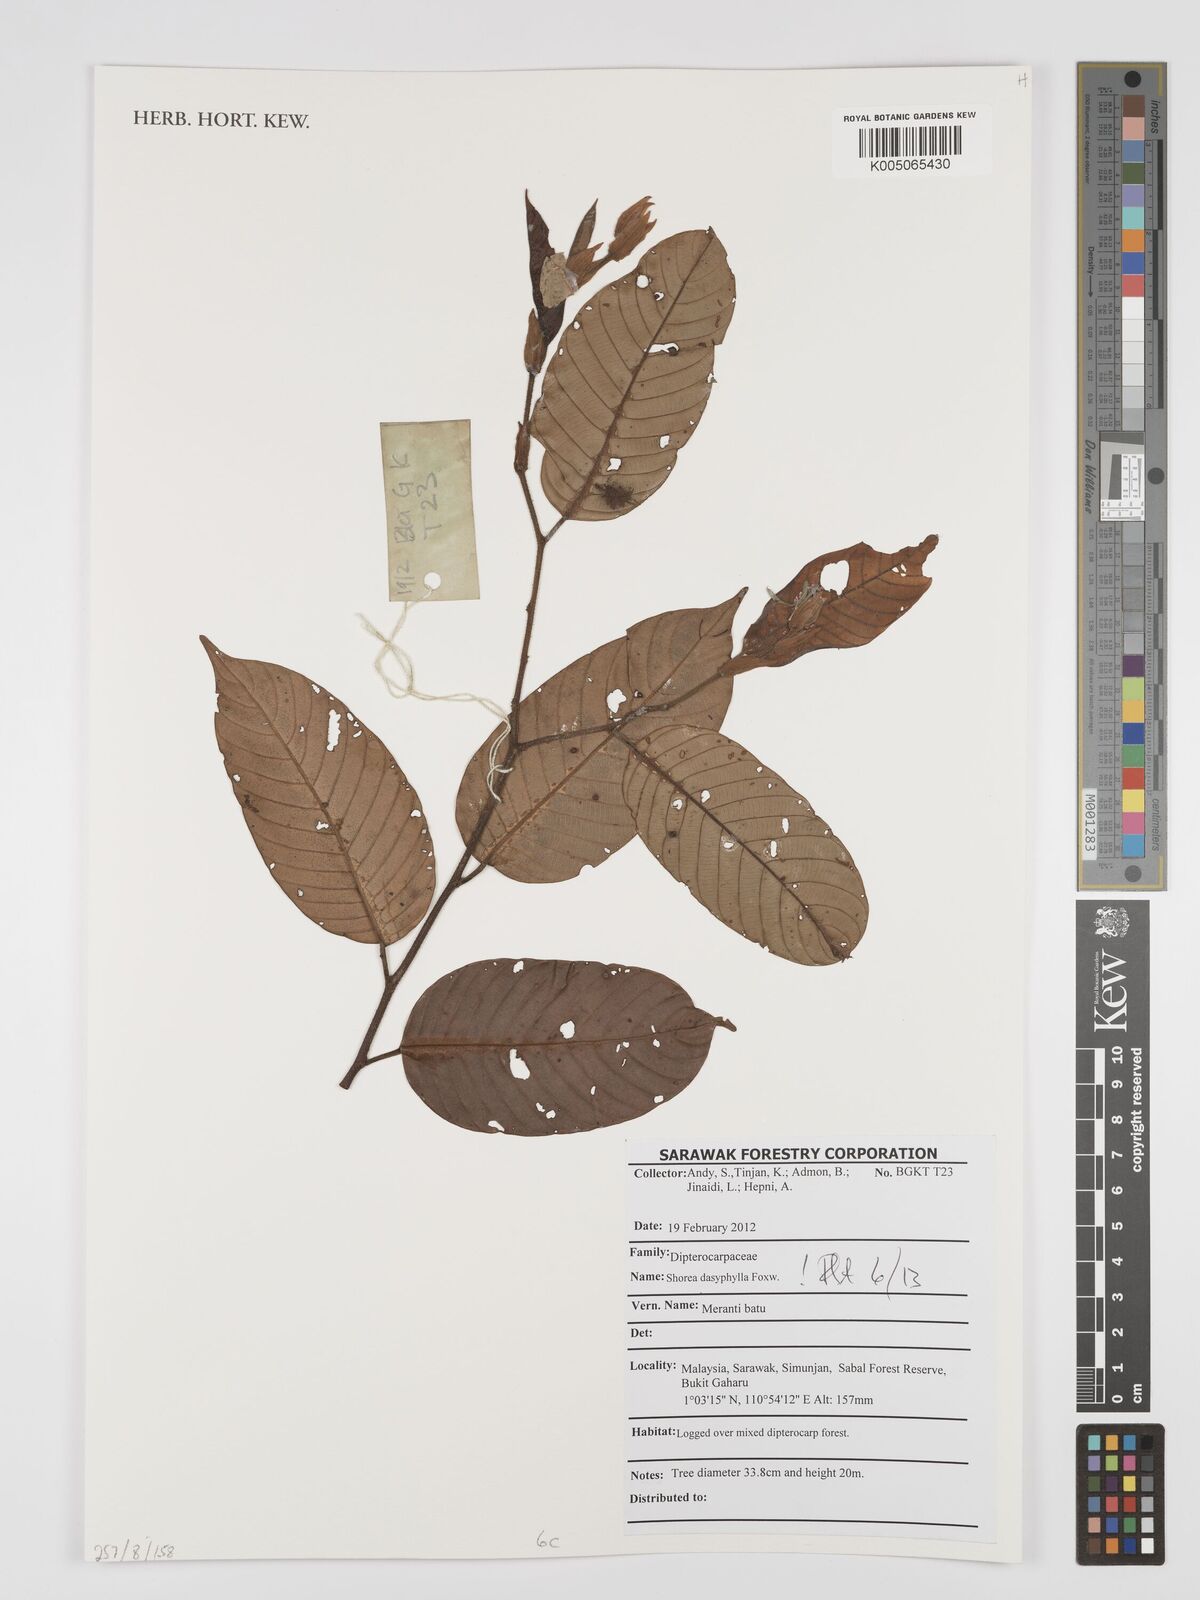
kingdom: Plantae
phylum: Tracheophyta
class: Magnoliopsida
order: Malvales
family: Dipterocarpaceae
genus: Shorea
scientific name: Shorea dasyphylla
